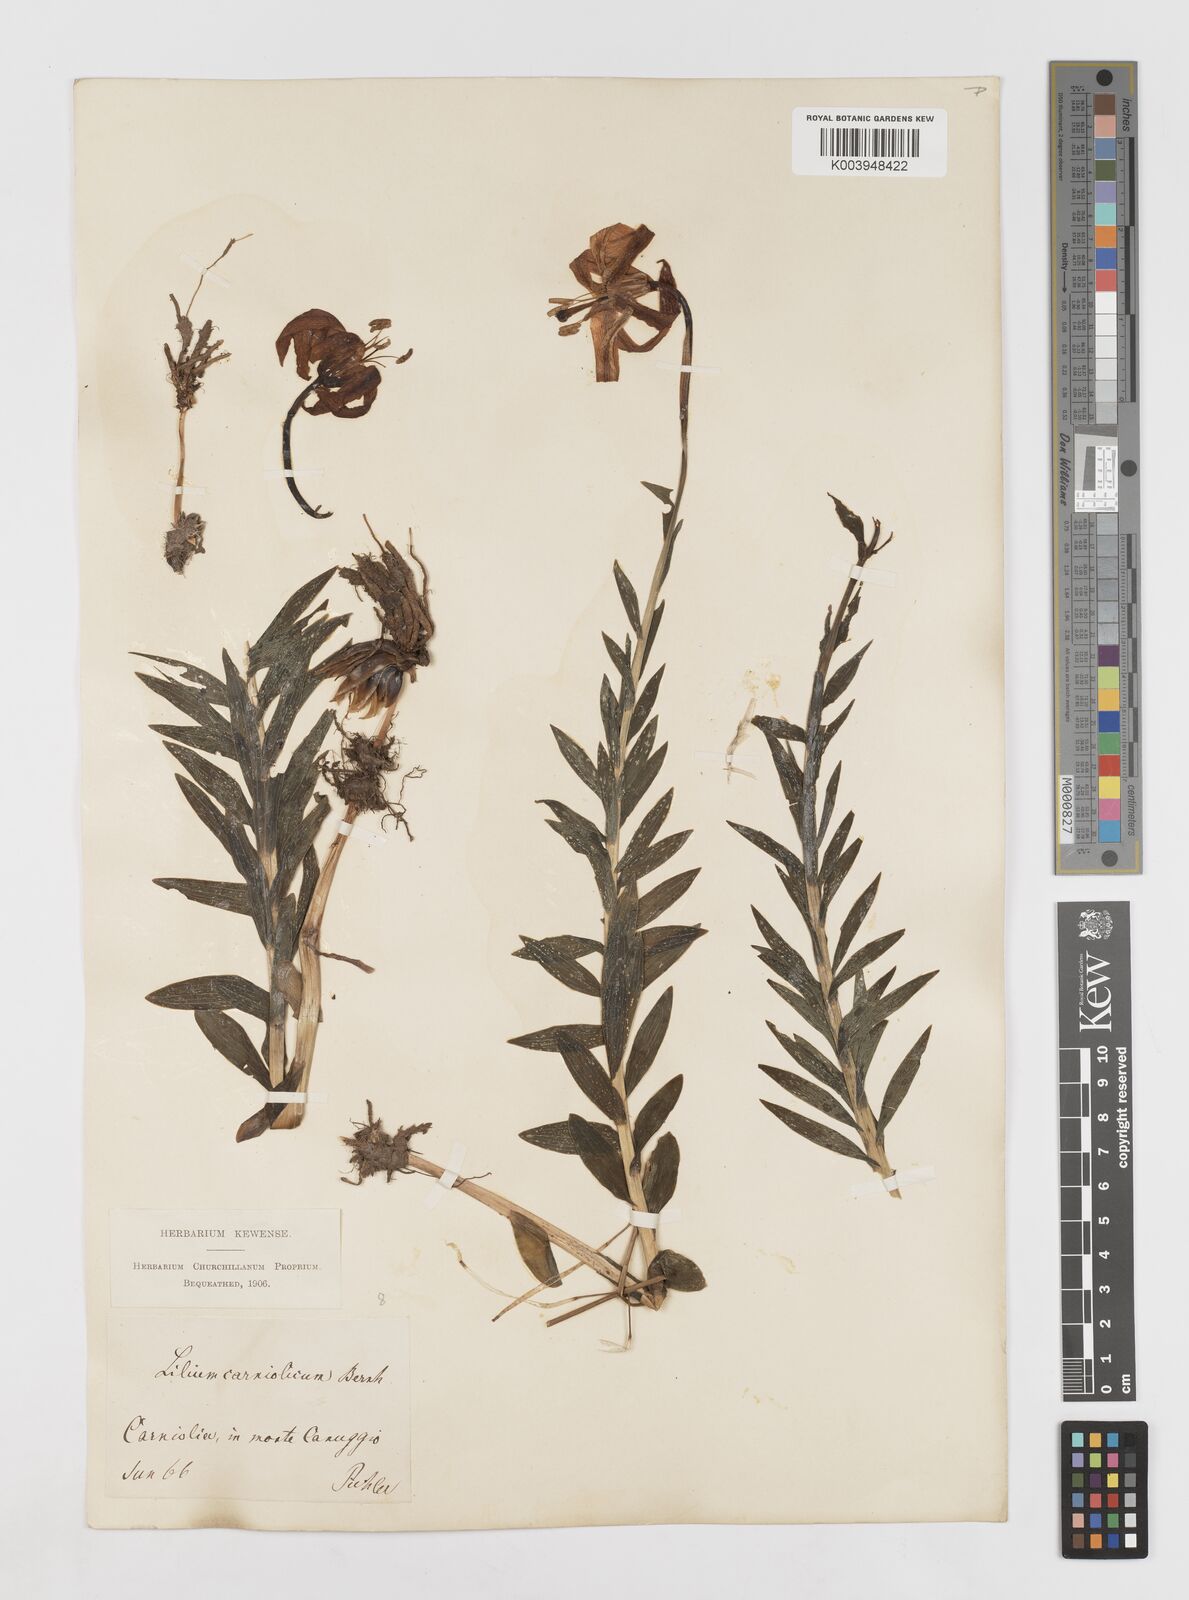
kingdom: Plantae
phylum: Tracheophyta
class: Liliopsida
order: Liliales
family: Liliaceae
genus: Lilium
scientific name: Lilium carniolicum
